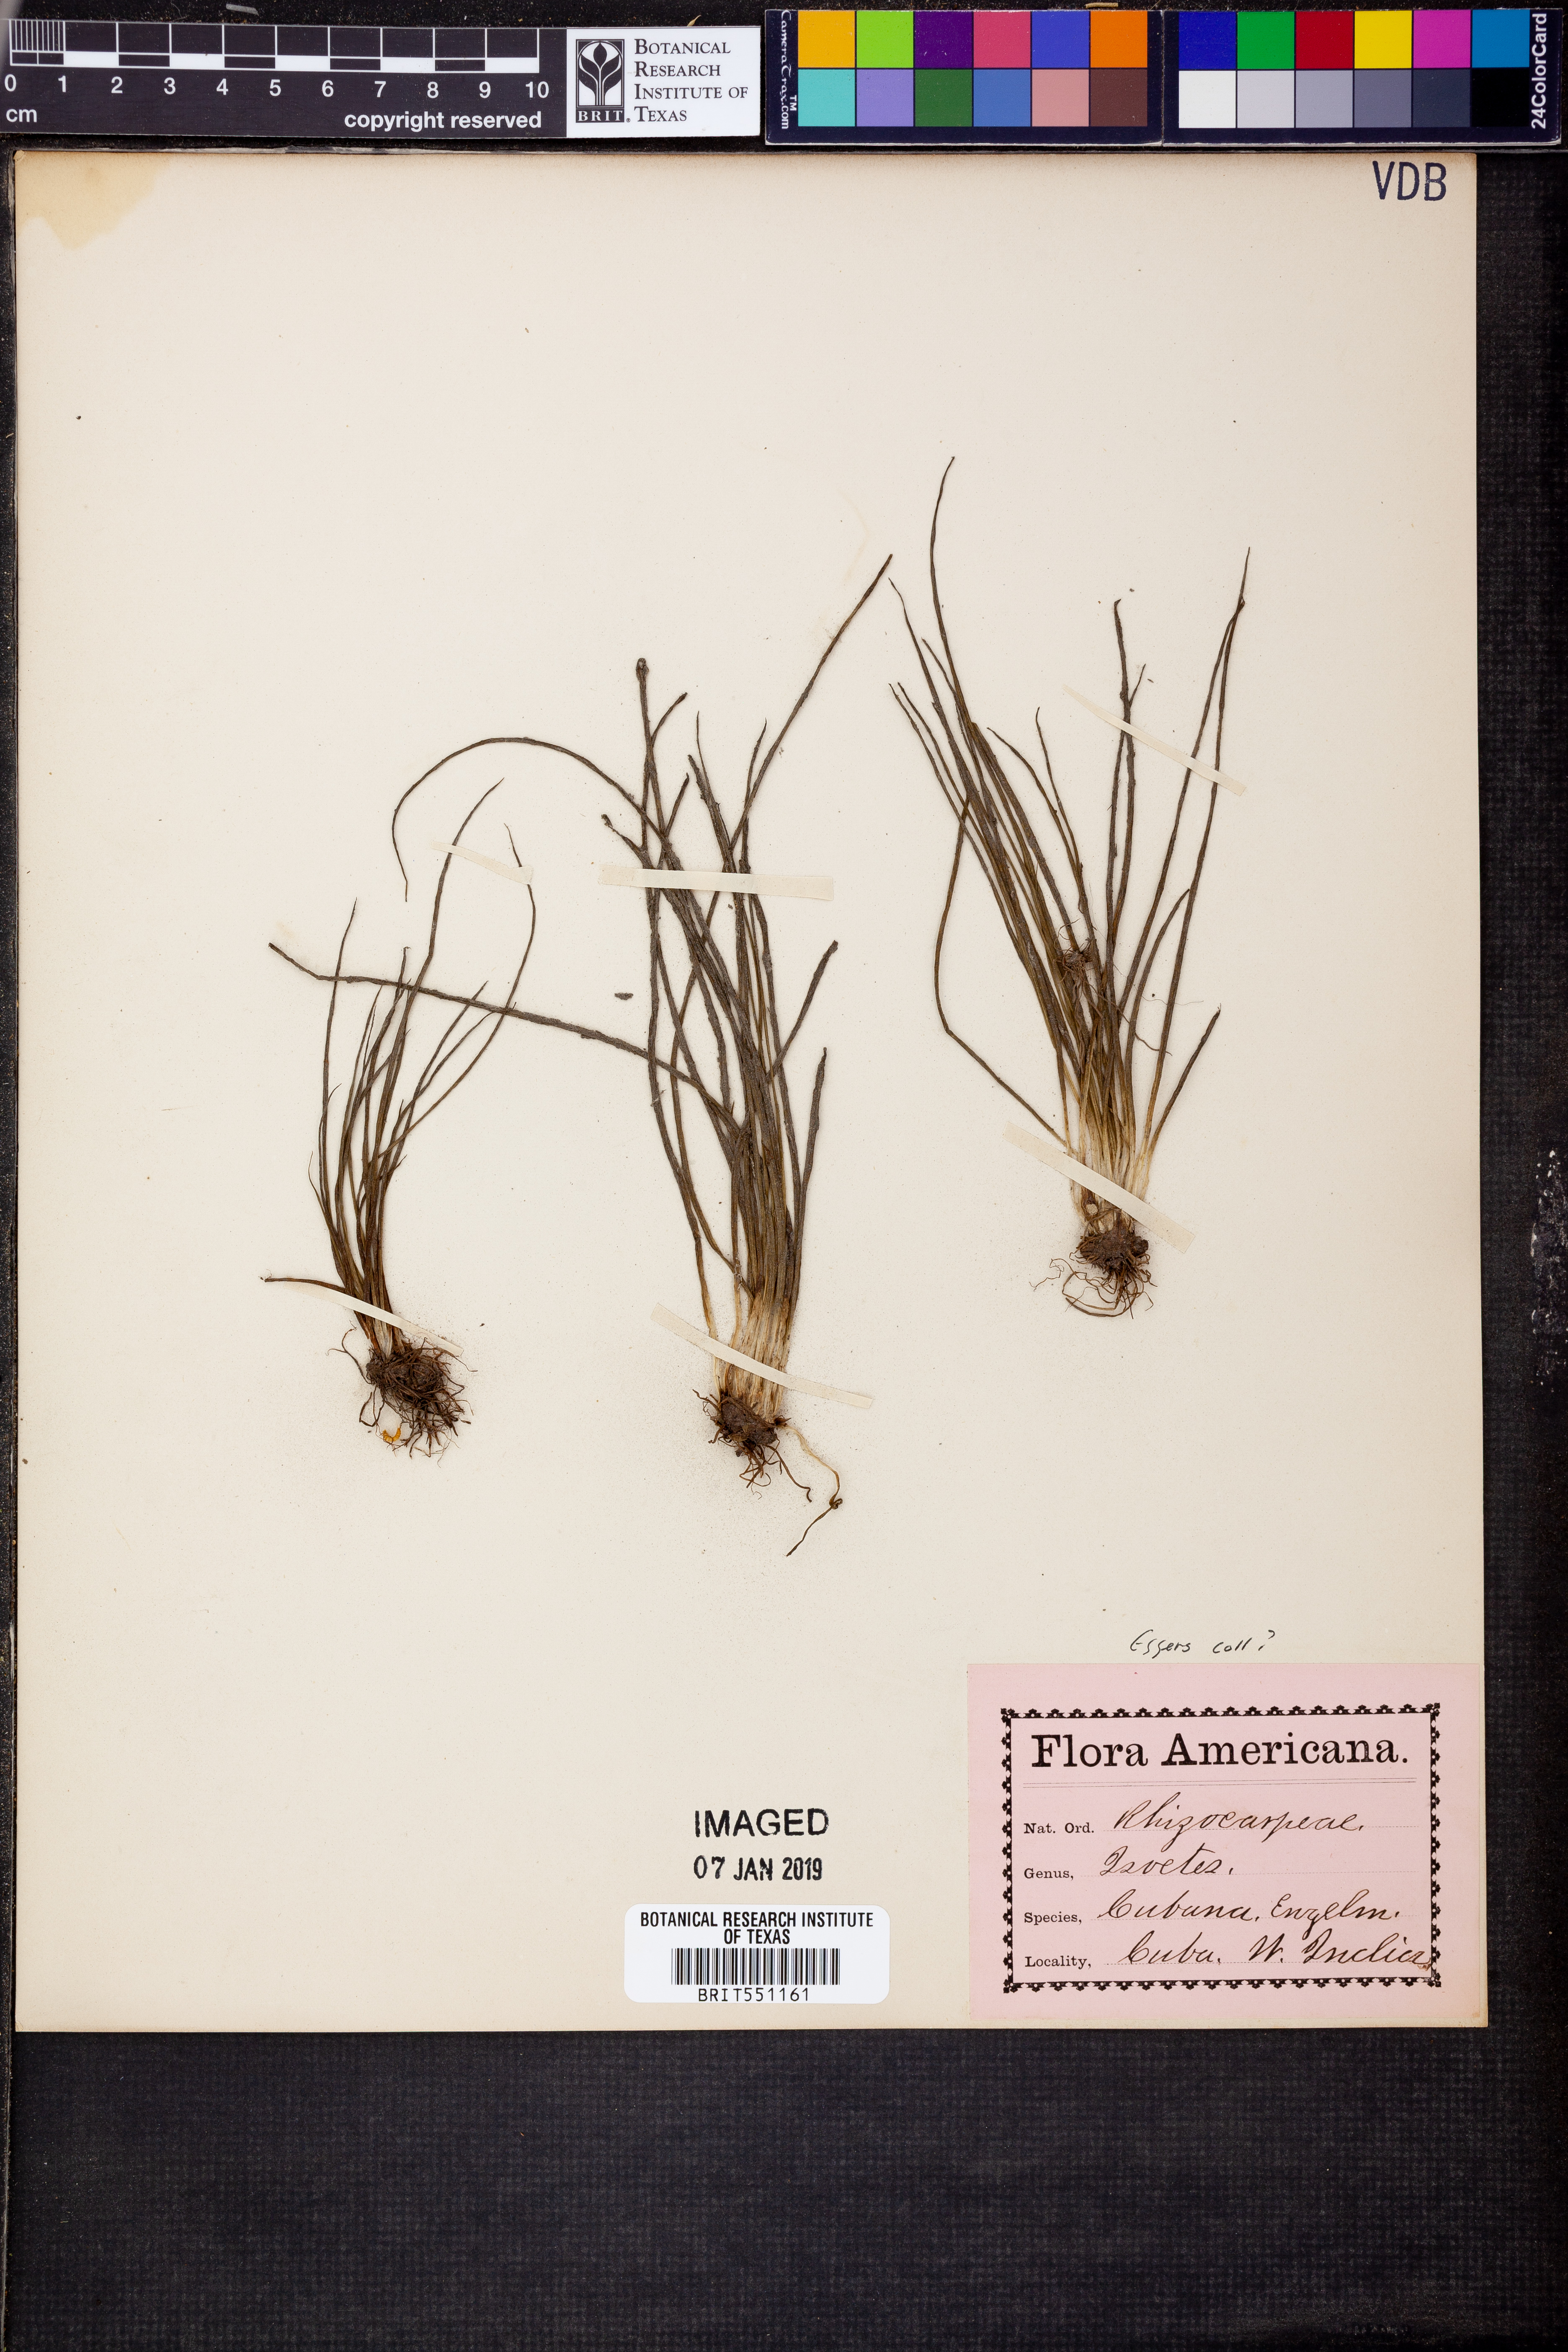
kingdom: Plantae
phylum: Tracheophyta
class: Lycopodiopsida
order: Isoetales
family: Isoetaceae
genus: Isoetes
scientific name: Isoetes cubana
